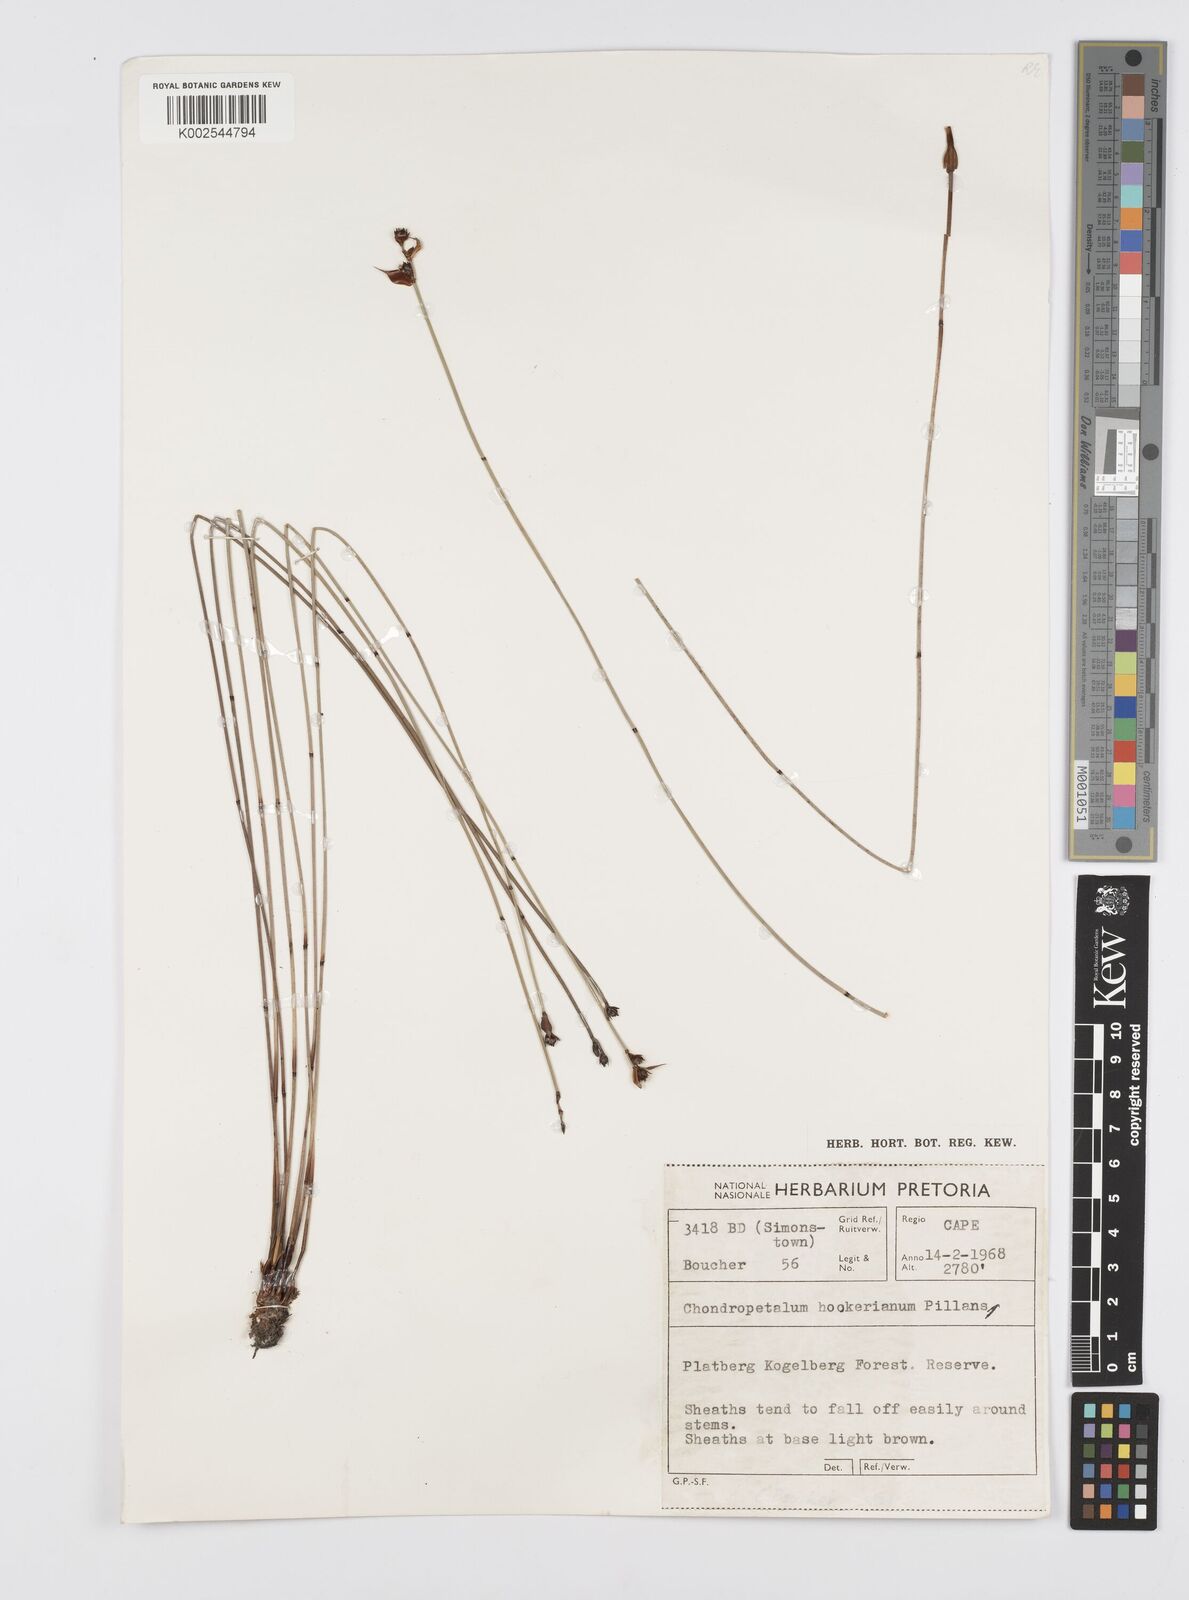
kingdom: Plantae
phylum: Tracheophyta
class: Liliopsida
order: Poales
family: Restionaceae
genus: Elegia
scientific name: Elegia hookeriana
